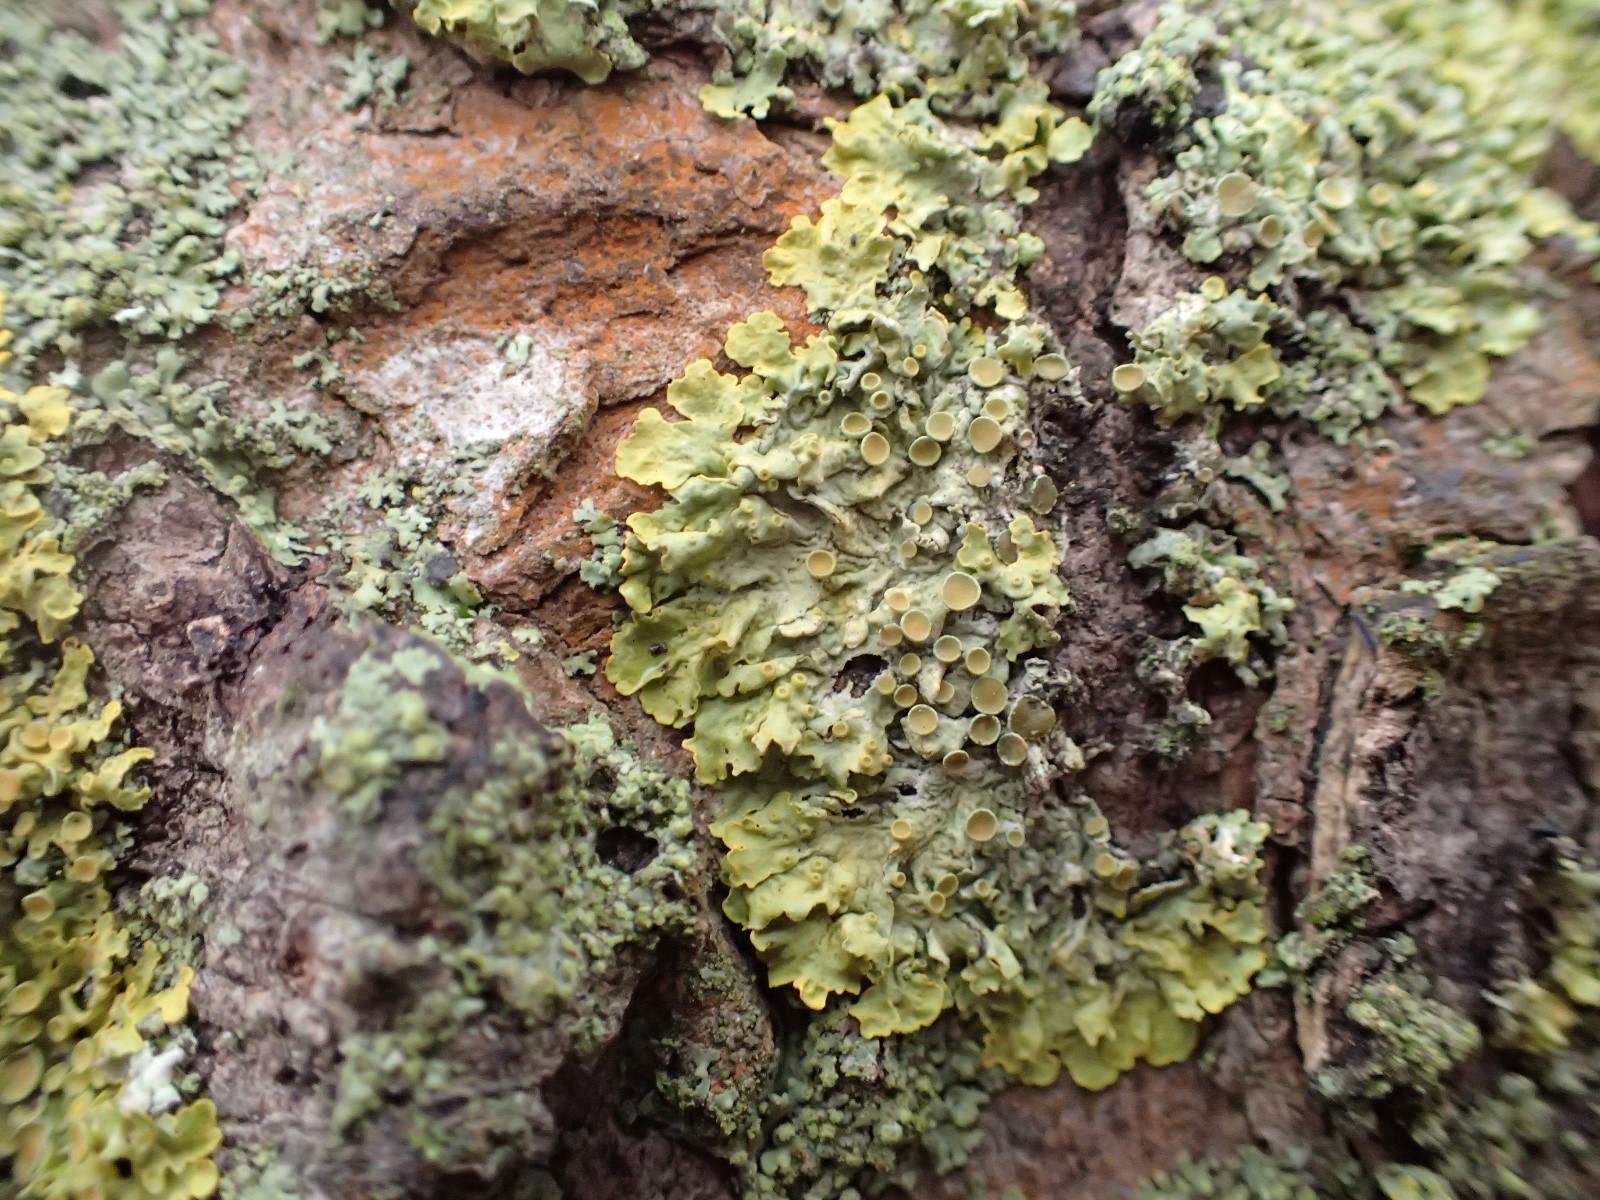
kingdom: Fungi
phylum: Ascomycota
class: Lecanoromycetes
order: Teloschistales
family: Teloschistaceae
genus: Xanthoria
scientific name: Xanthoria parietina
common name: almindelig væggelav
